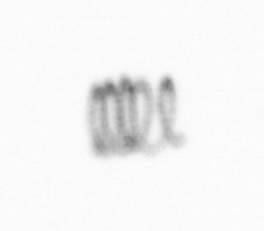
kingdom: Chromista
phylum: Ochrophyta
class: Bacillariophyceae
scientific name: Bacillariophyceae
